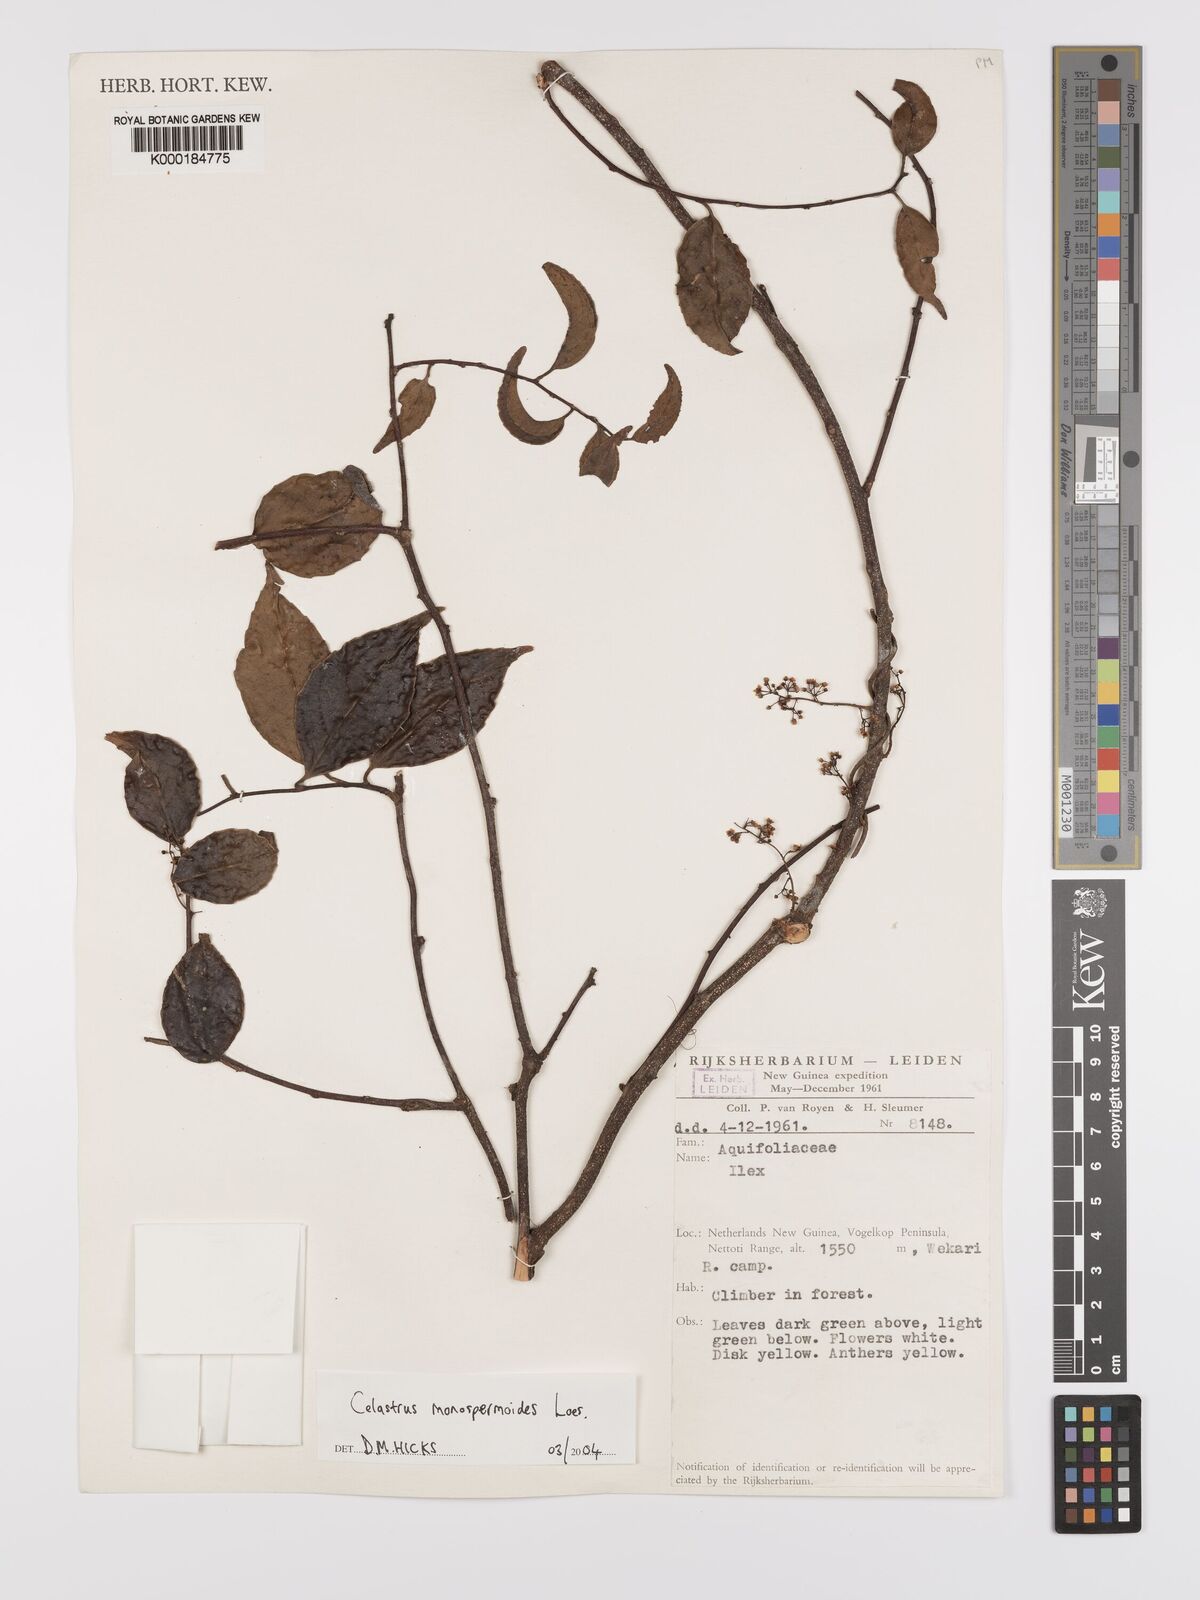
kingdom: Plantae
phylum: Tracheophyta
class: Magnoliopsida
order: Celastrales
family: Celastraceae
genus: Celastrus
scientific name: Celastrus monospermoides
